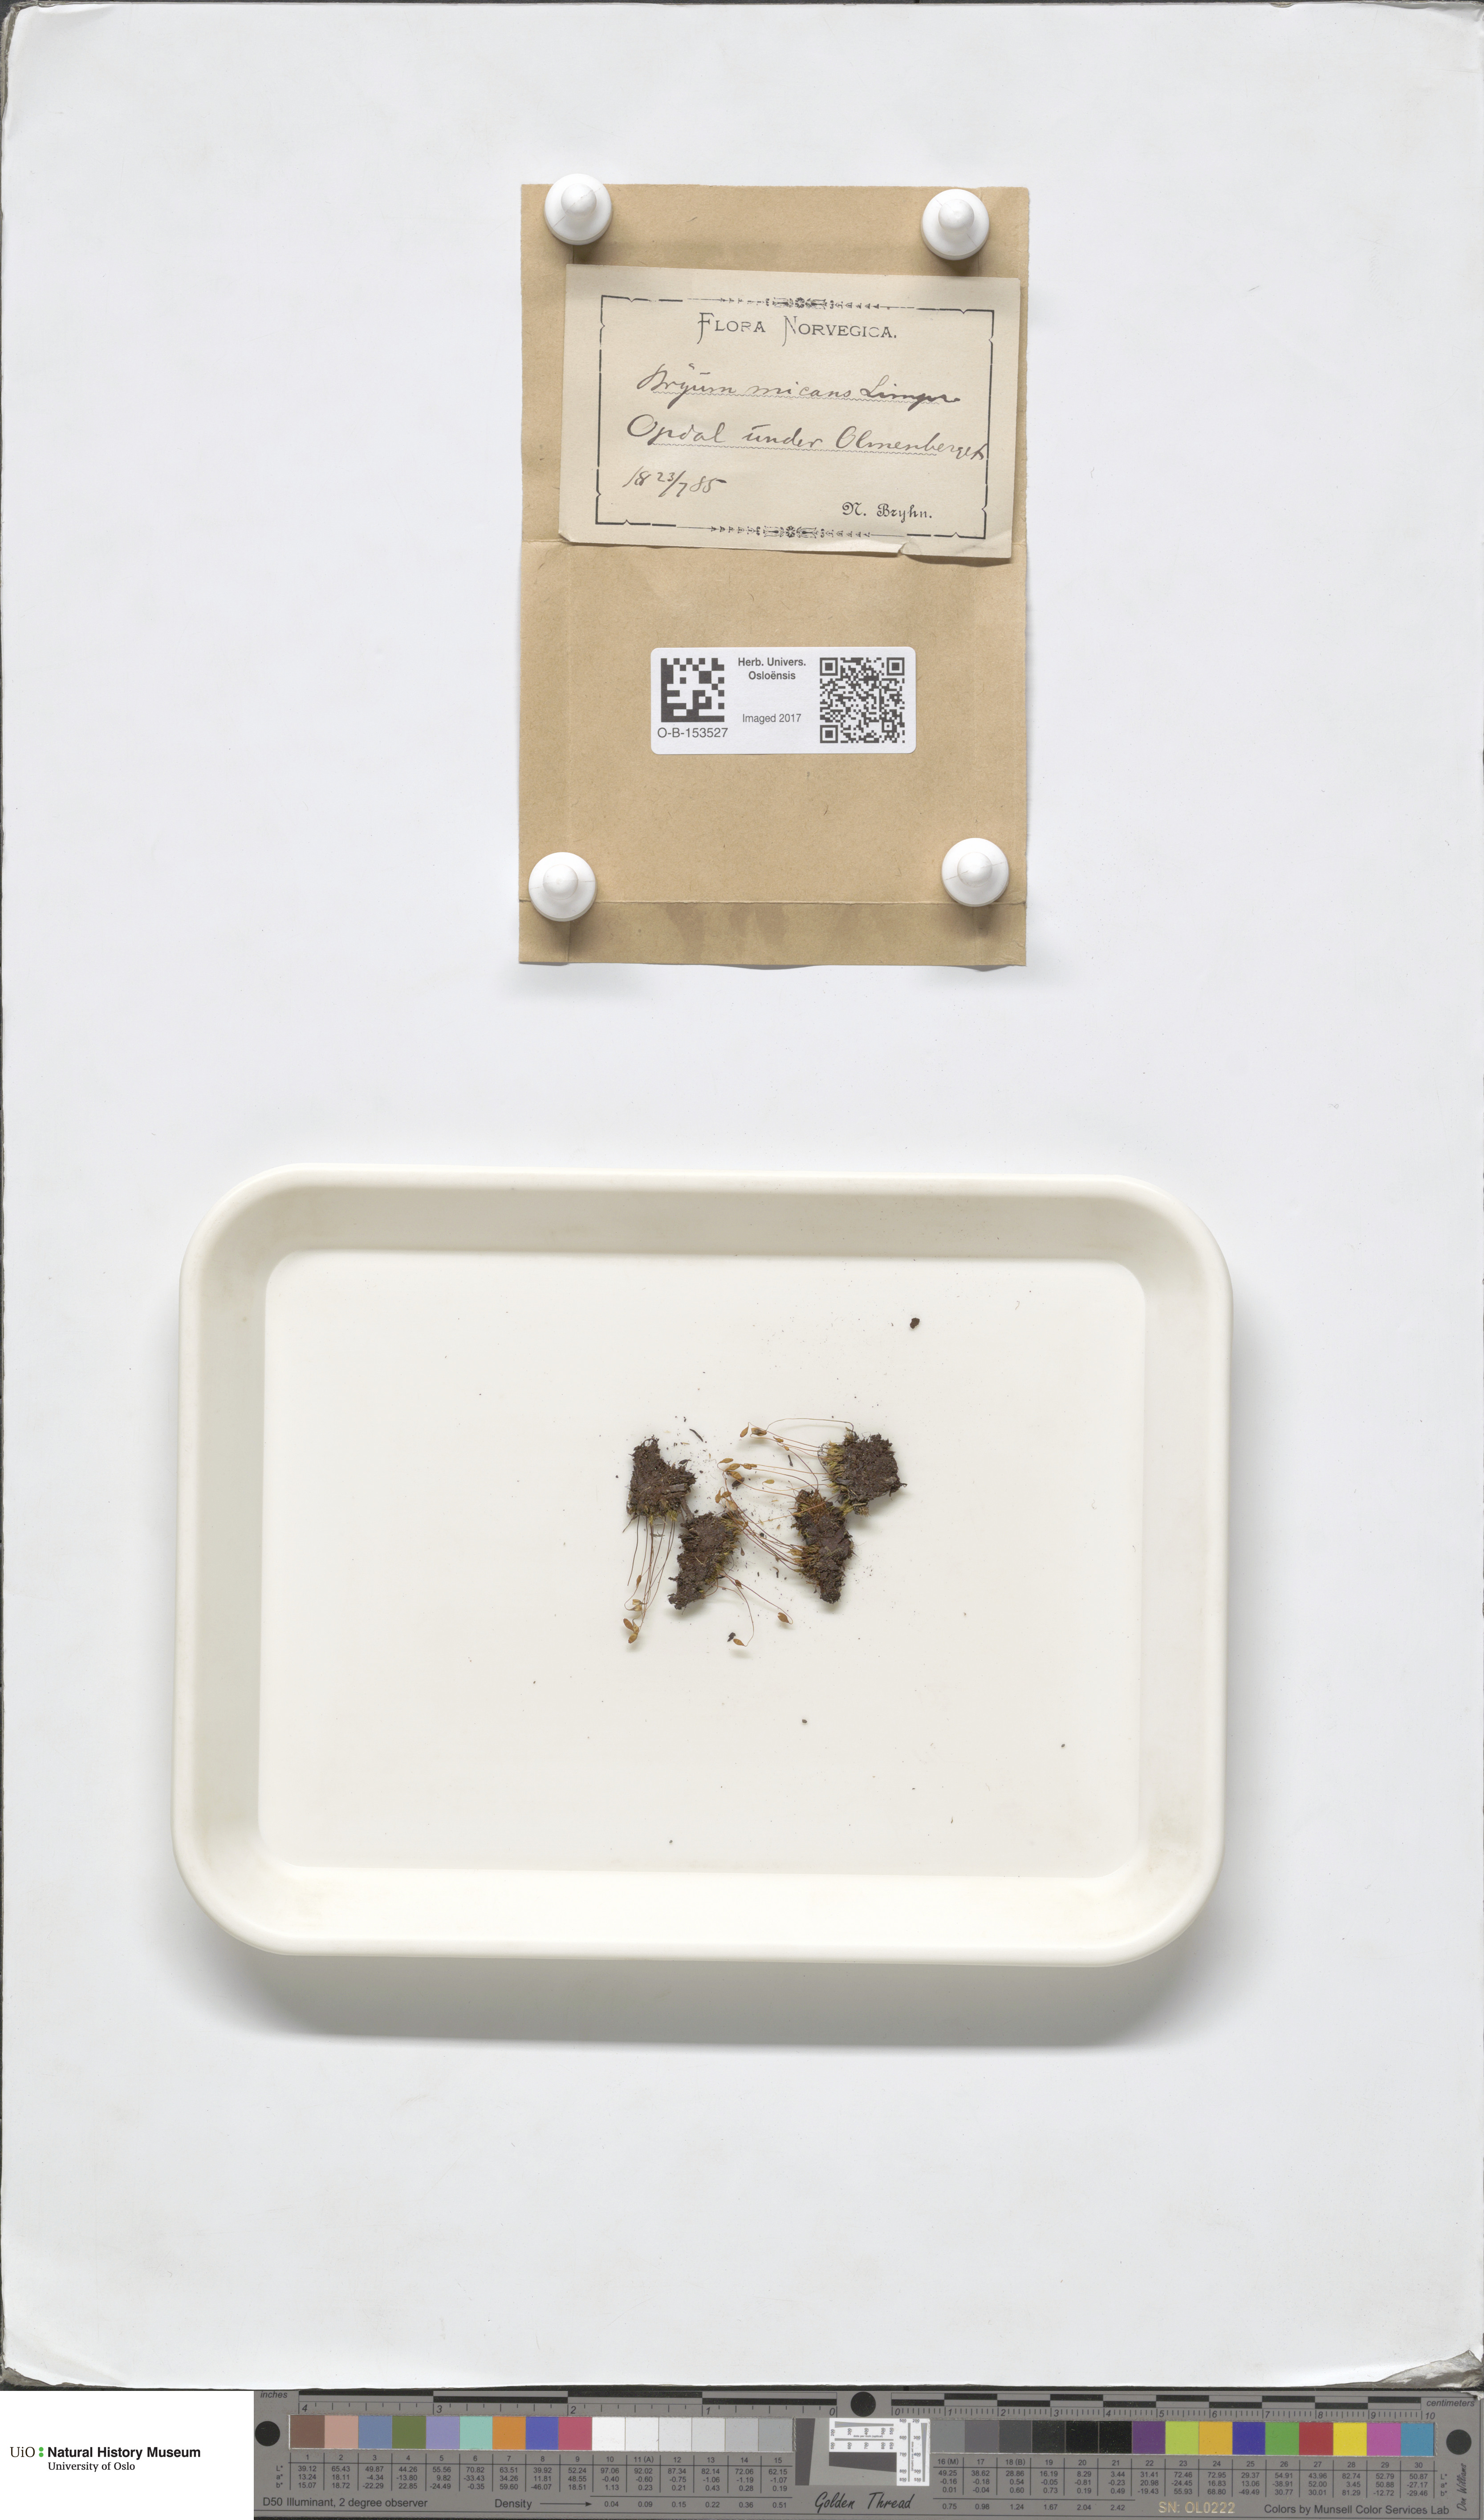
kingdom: Plantae
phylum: Bryophyta
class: Bryopsida
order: Bryales
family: Bryaceae
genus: Ptychostomum
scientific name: Ptychostomum arcticum
